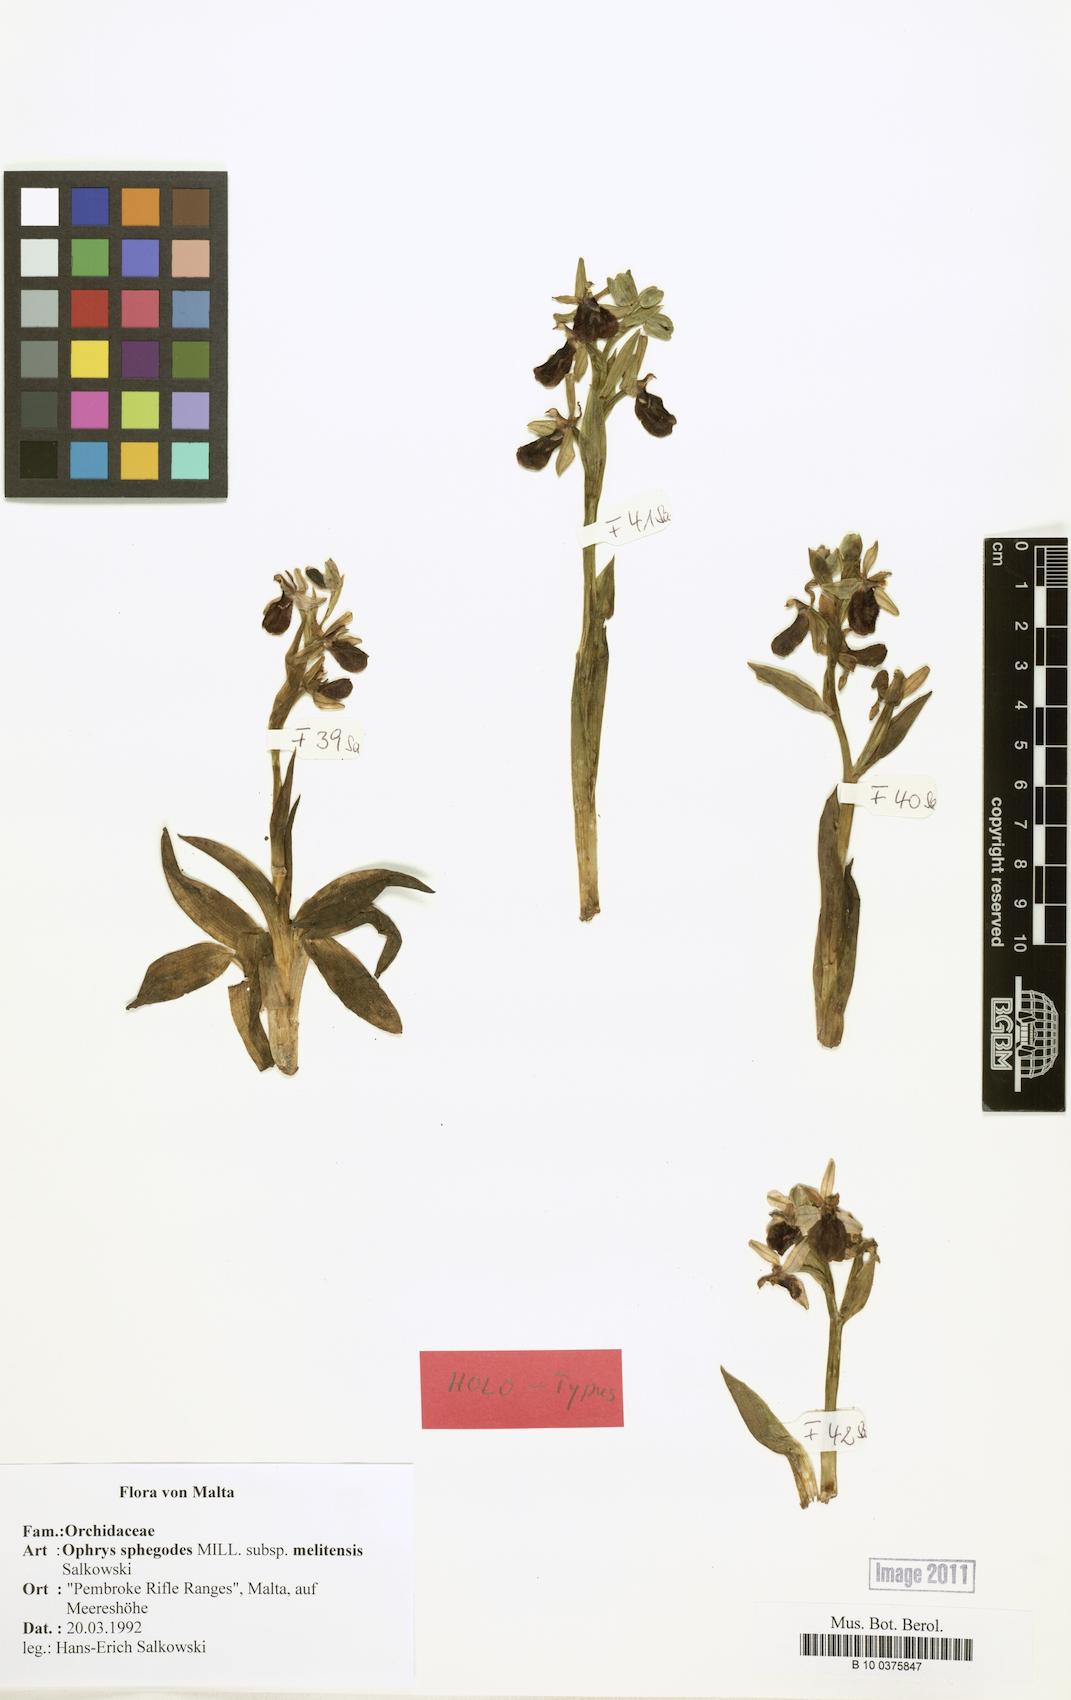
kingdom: Plantae
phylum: Tracheophyta
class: Liliopsida
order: Asparagales
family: Orchidaceae
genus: Ophrys
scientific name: Ophrys flavicans
